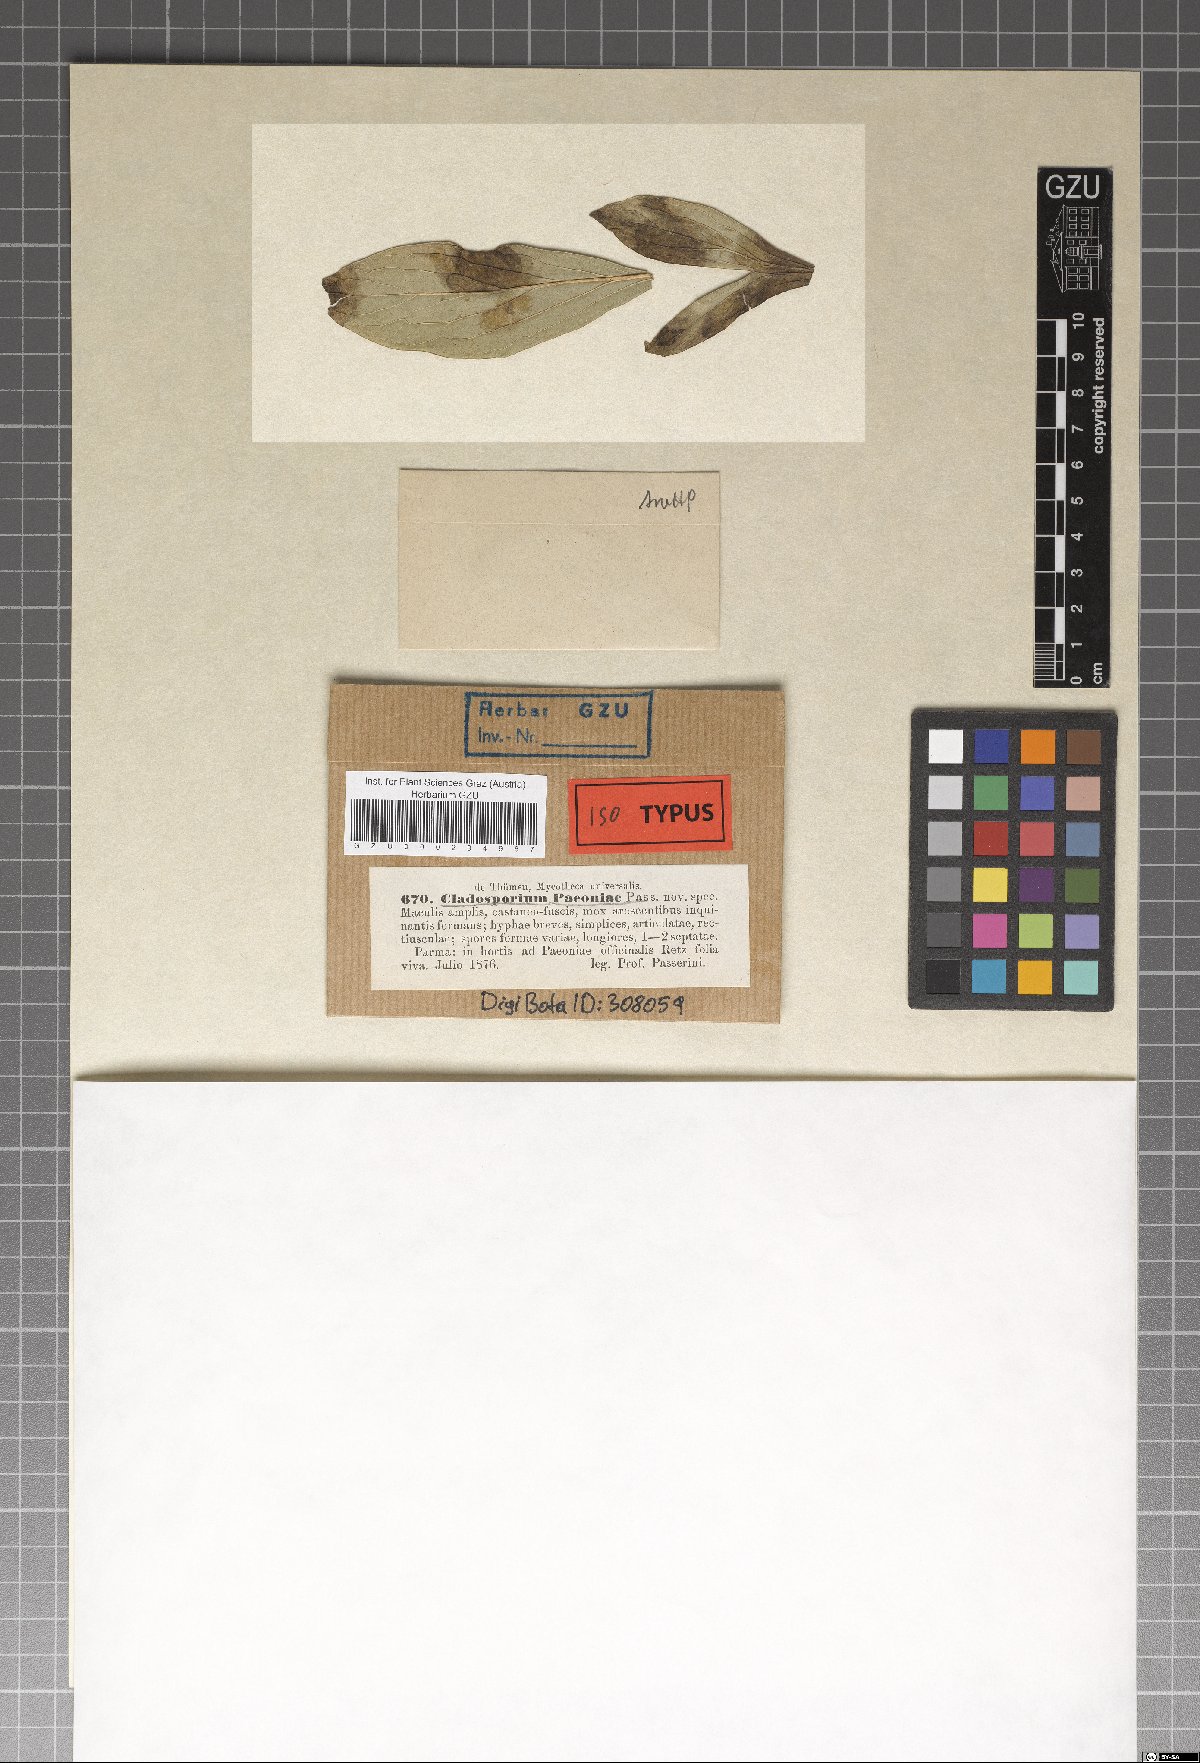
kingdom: Fungi
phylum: Ascomycota
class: Dothideomycetes
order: Capnodiales
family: Davidiellaceae
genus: Dichocladosporium
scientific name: Dichocladosporium chlorocephalum
